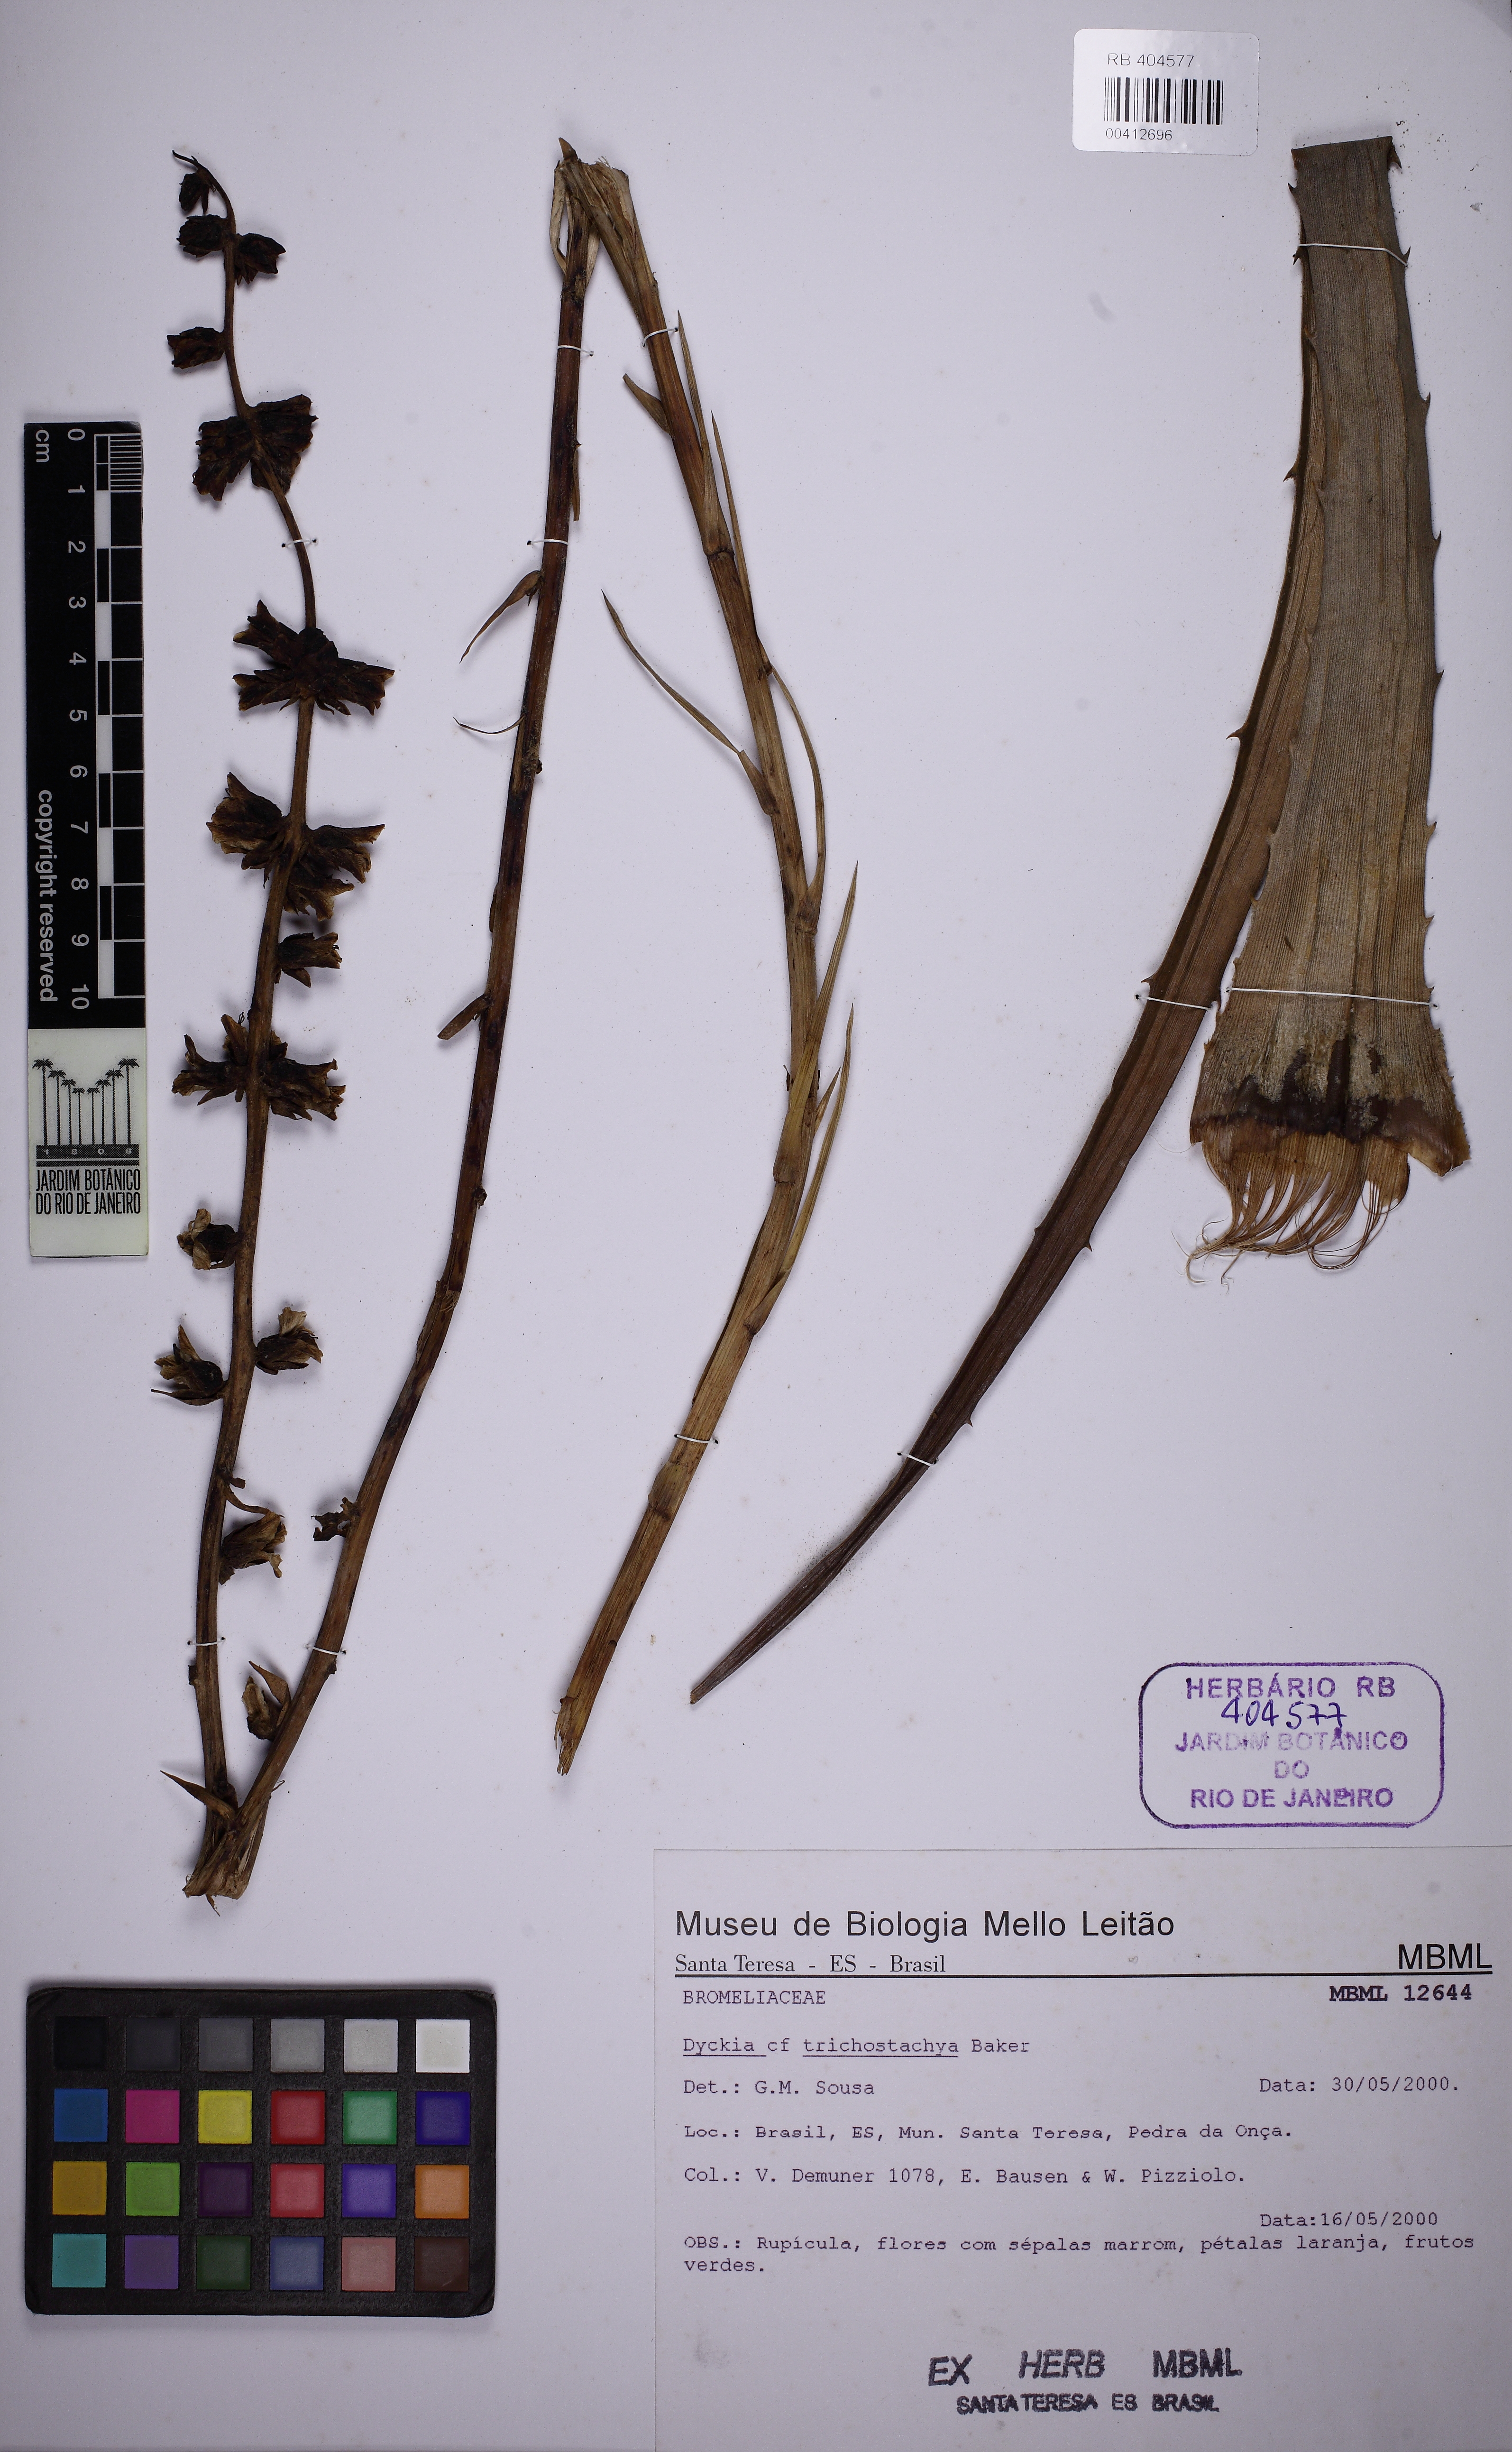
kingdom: Plantae
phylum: Tracheophyta
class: Liliopsida
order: Poales
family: Bromeliaceae
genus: Dyckia
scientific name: Dyckia trichostachya
